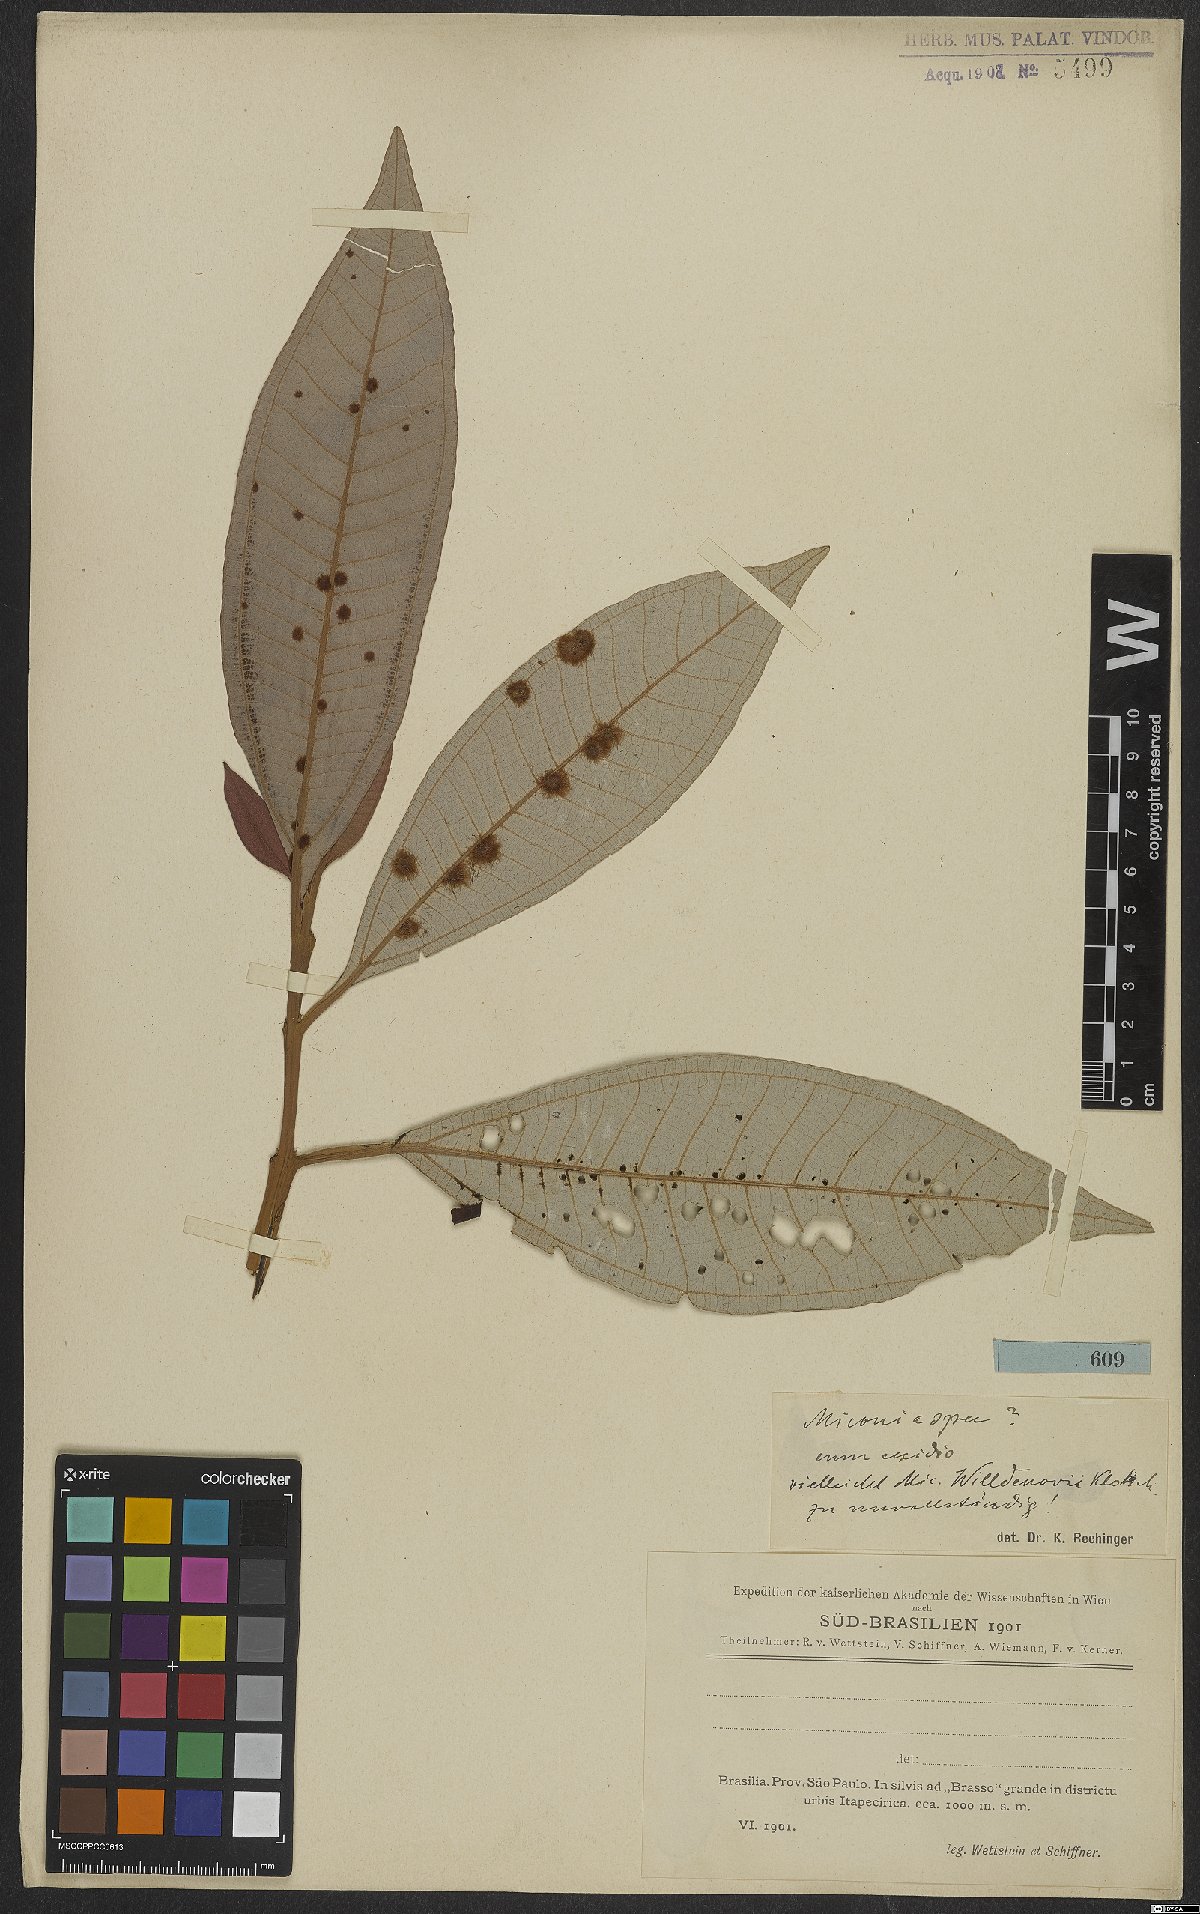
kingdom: Plantae
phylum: Tracheophyta
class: Magnoliopsida
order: Myrtales
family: Melastomataceae
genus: Miconia
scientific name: Miconia
